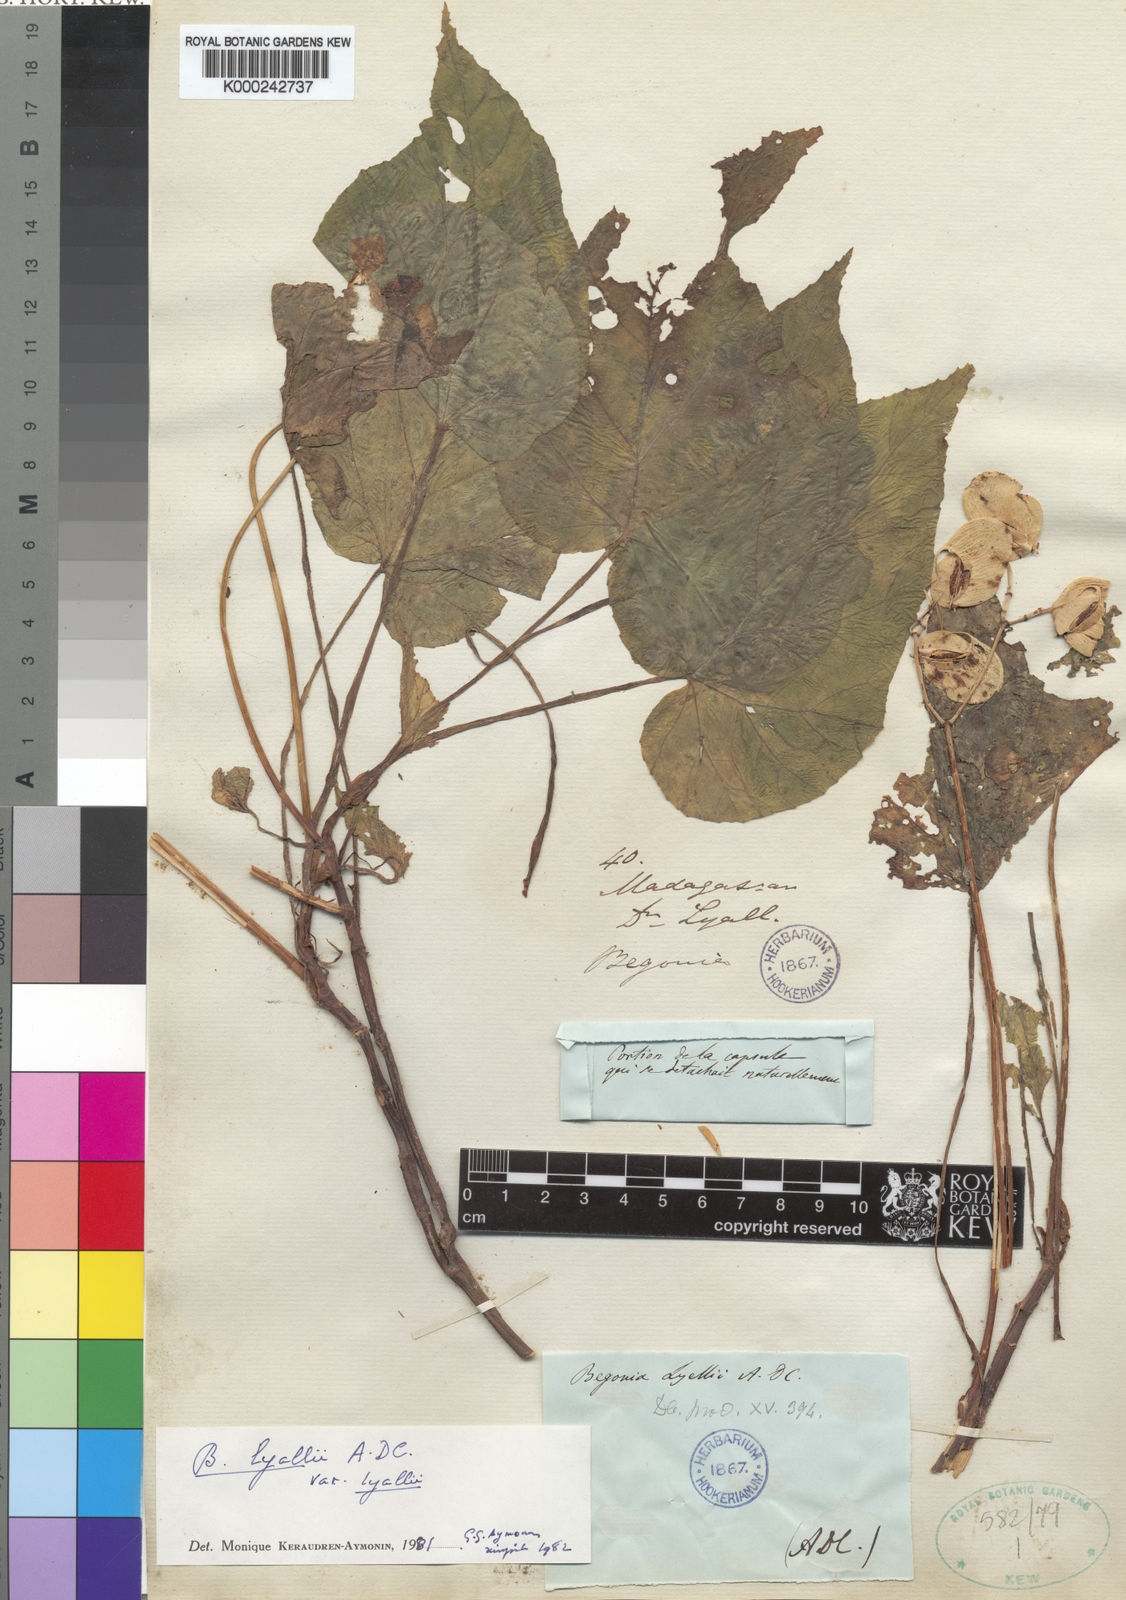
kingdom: Plantae
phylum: Tracheophyta
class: Magnoliopsida
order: Cucurbitales
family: Begoniaceae
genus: Begonia
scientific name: Begonia lyallii
